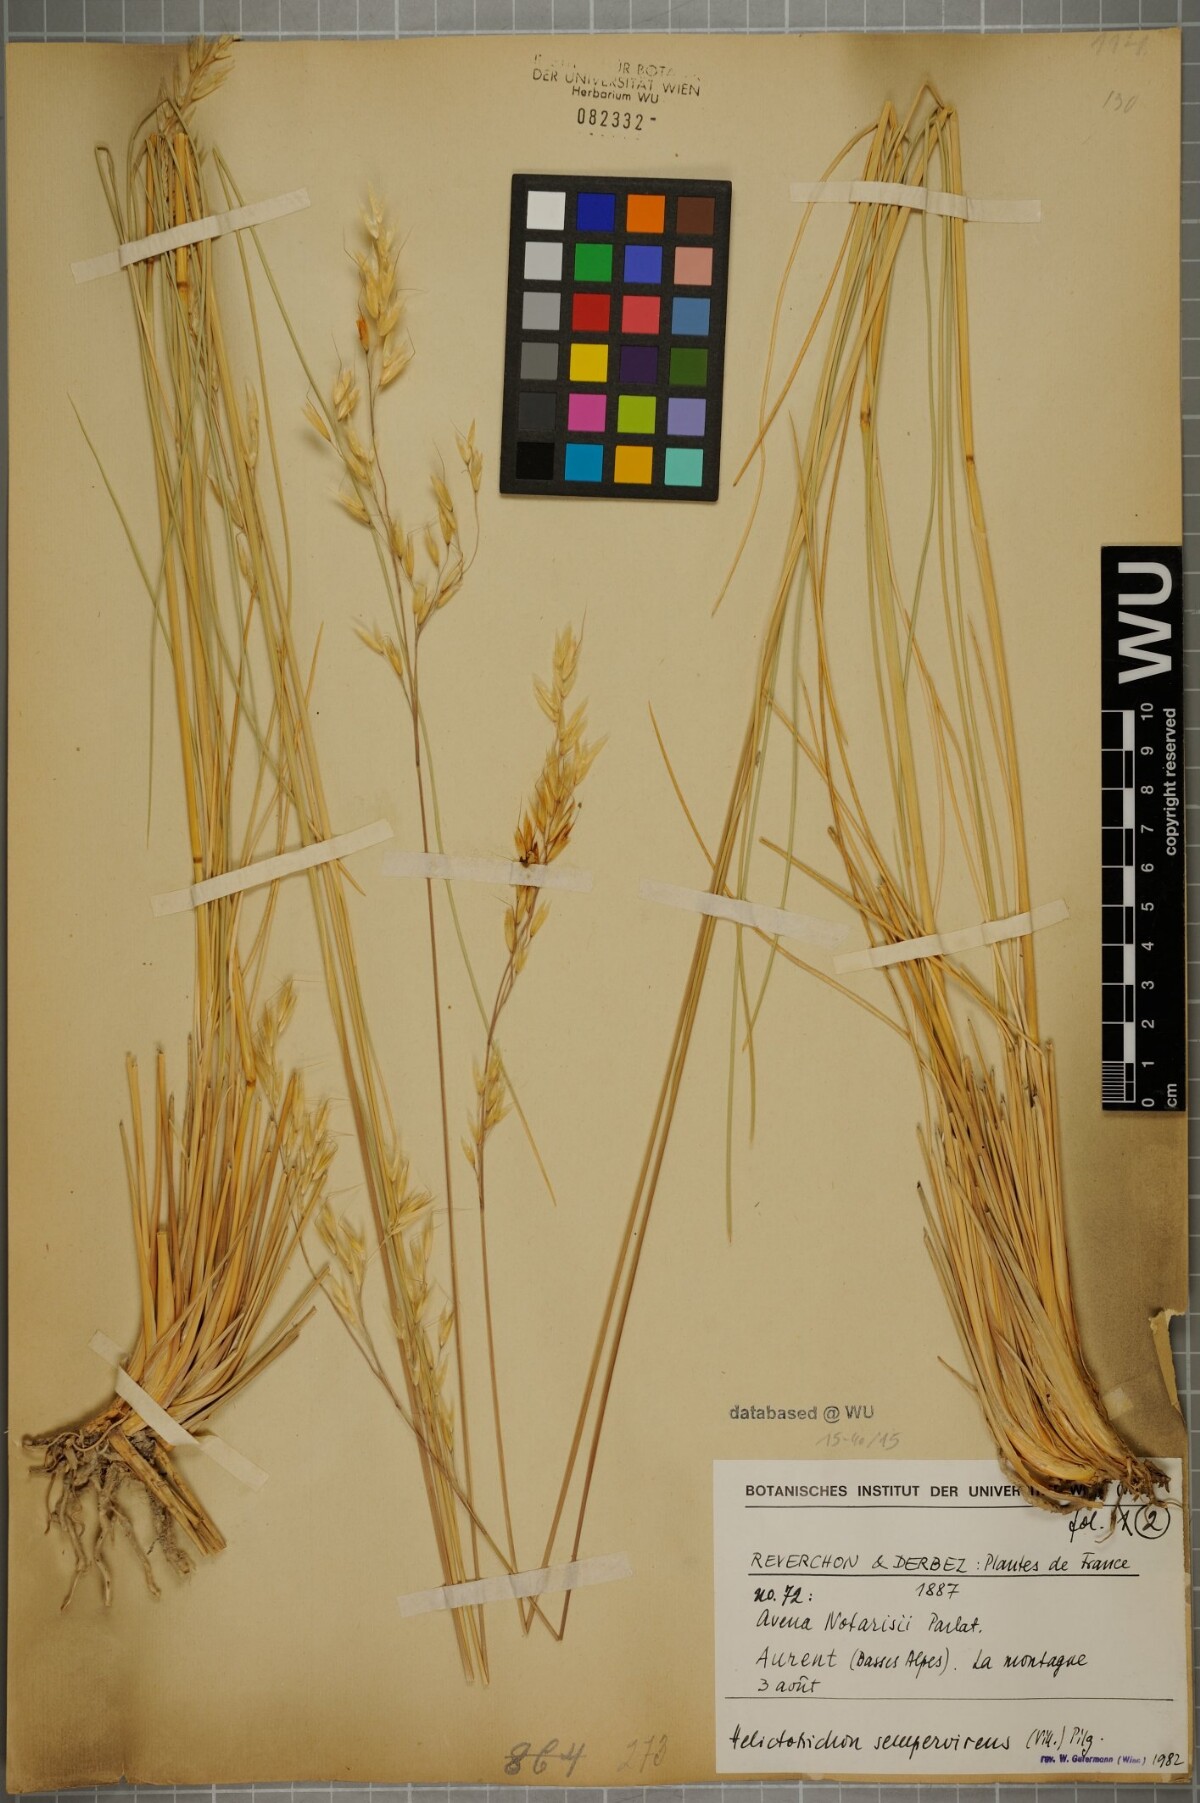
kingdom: Plantae
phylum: Tracheophyta
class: Liliopsida
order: Poales
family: Poaceae
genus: Helictotrichon
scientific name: Helictotrichon sempervirens
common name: Blue oat-grass
